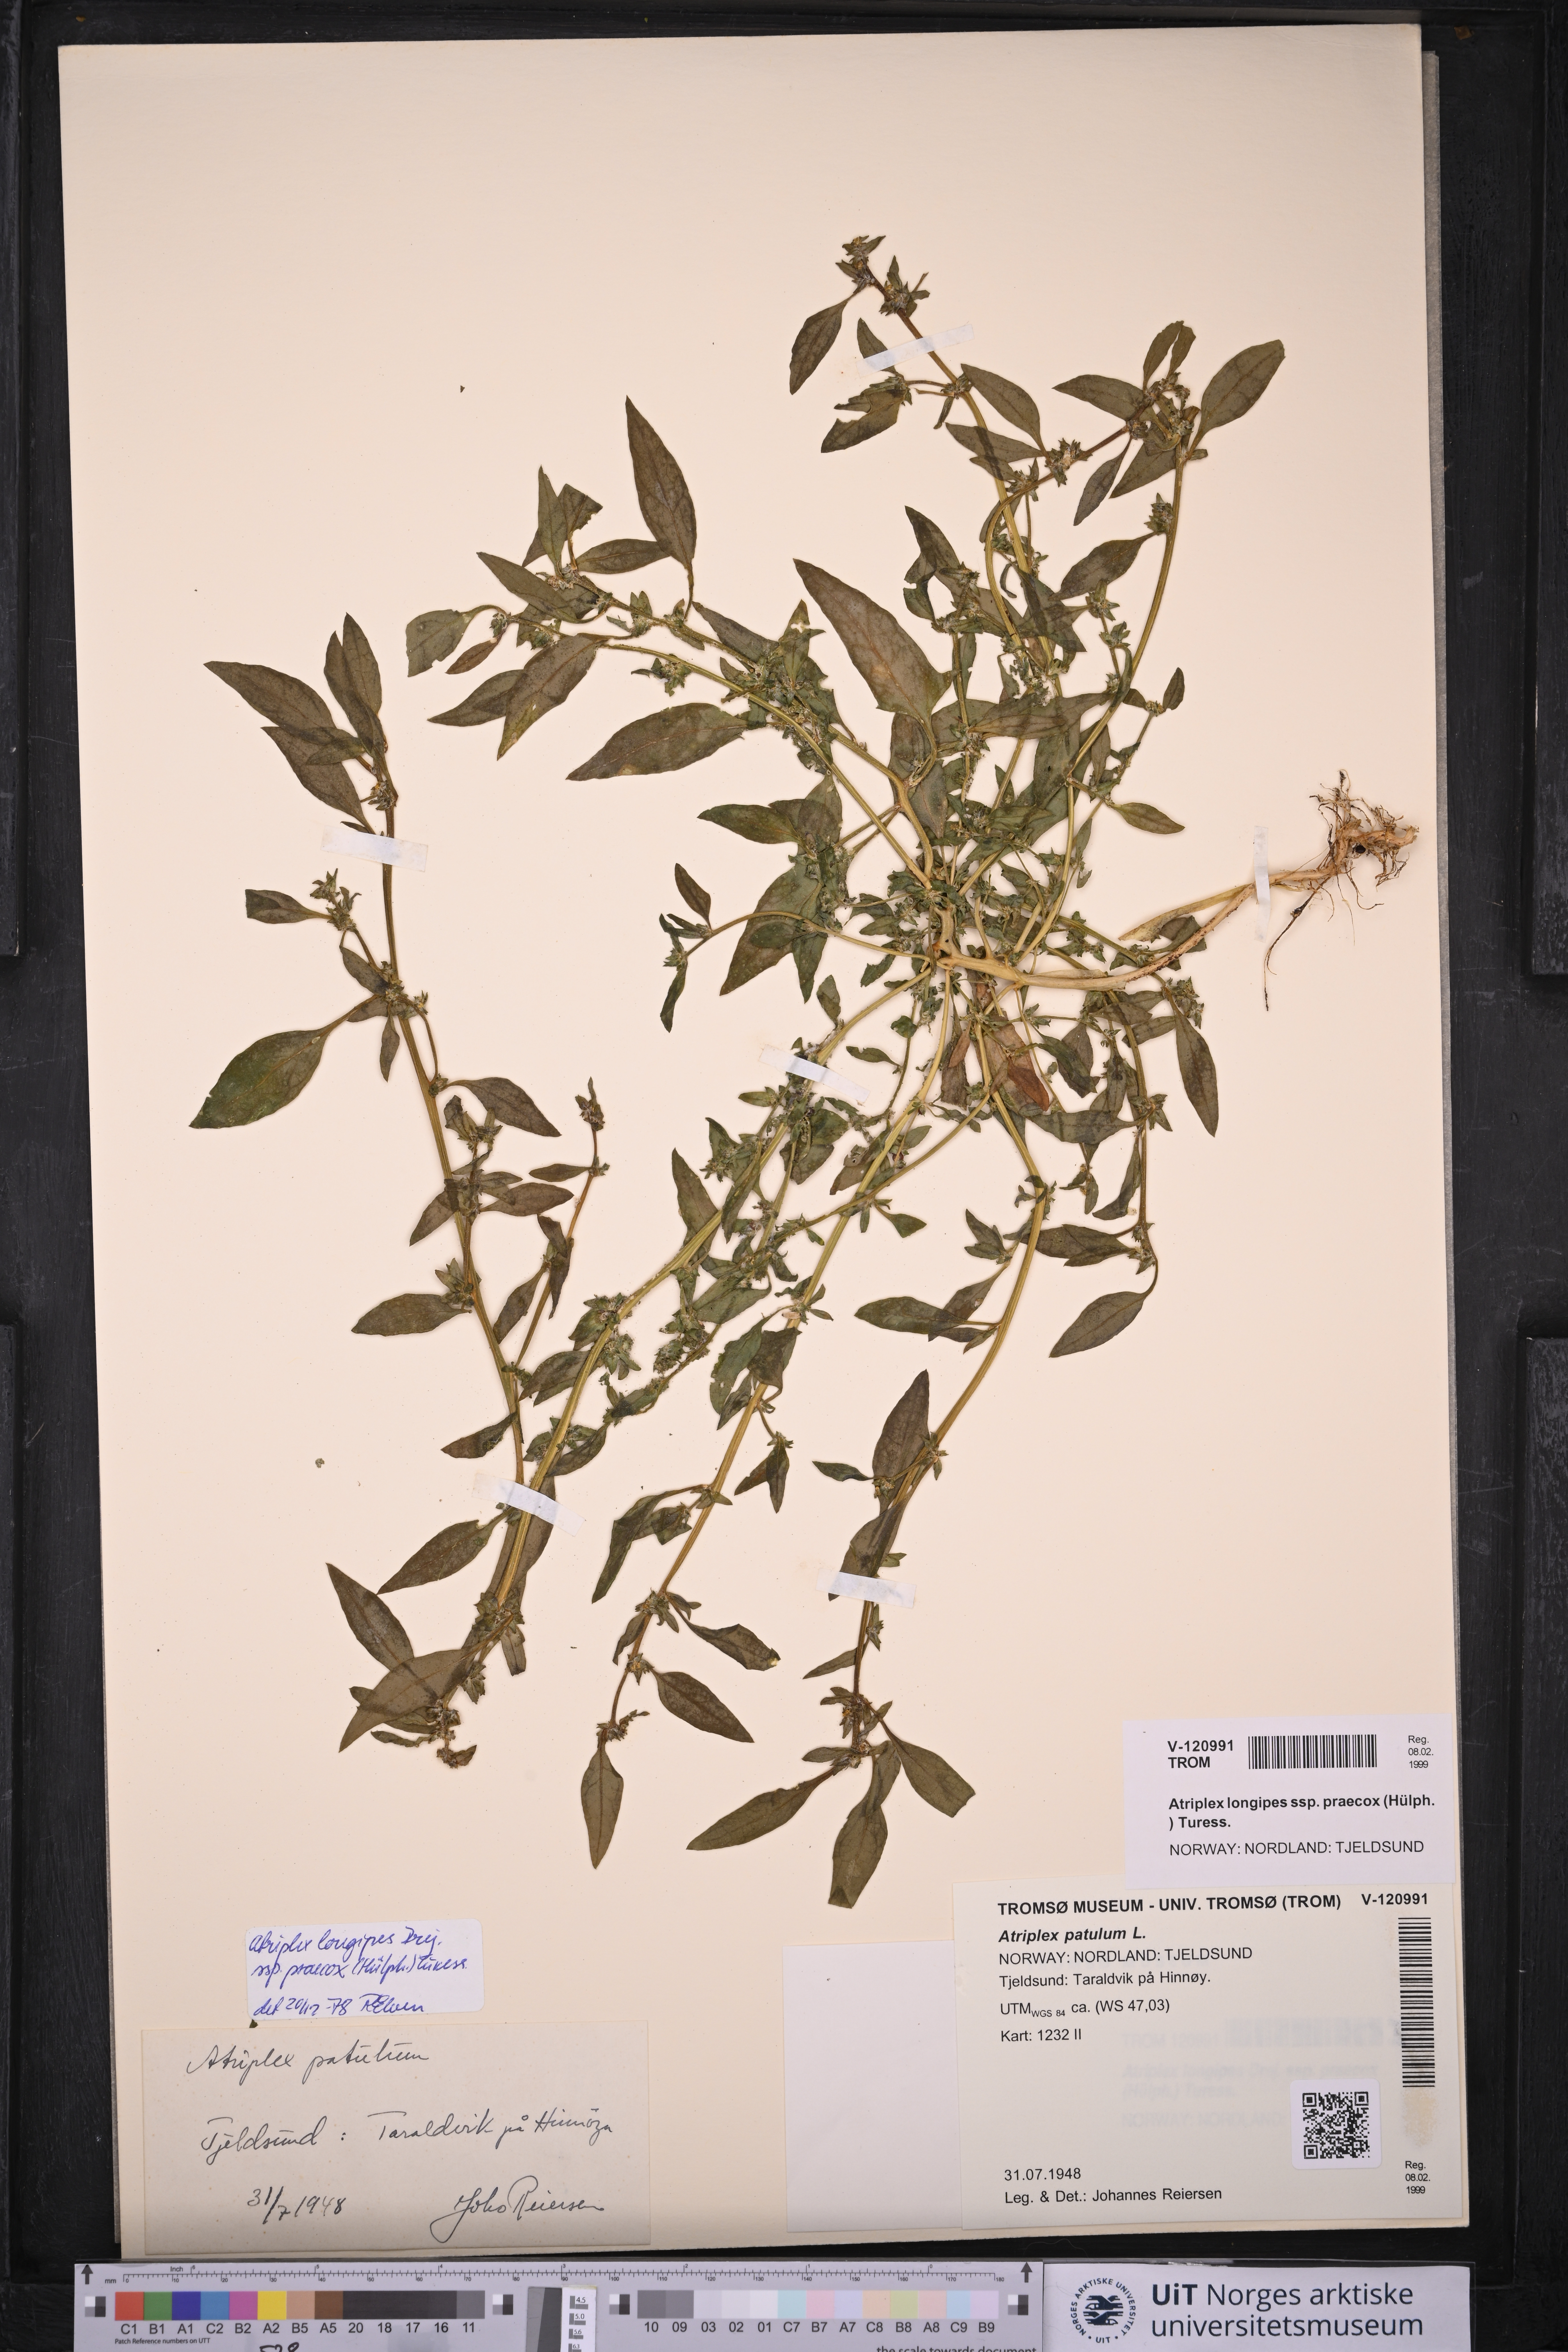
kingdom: Plantae
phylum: Tracheophyta
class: Magnoliopsida
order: Caryophyllales
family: Amaranthaceae
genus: Atriplex
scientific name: Atriplex praecox
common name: Early orache
